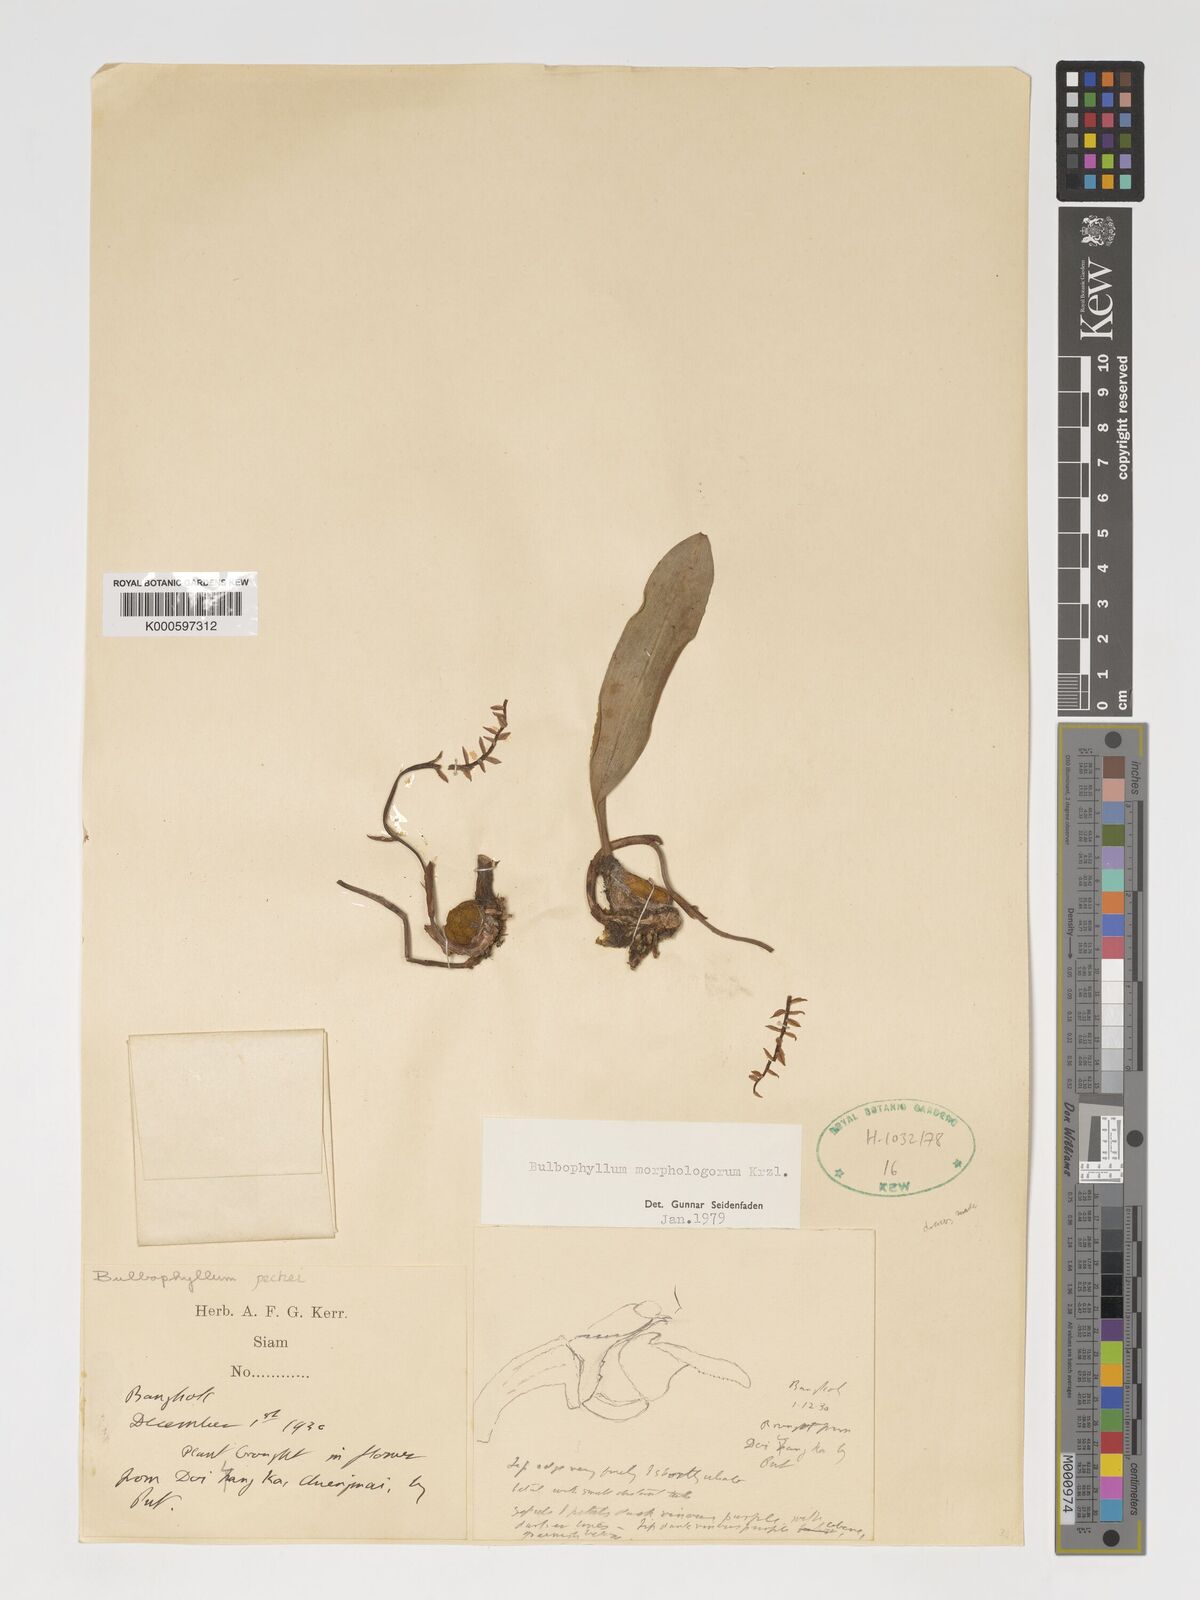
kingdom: Plantae
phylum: Tracheophyta
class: Liliopsida
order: Asparagales
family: Orchidaceae
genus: Bulbophyllum
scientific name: Bulbophyllum morphologorum
